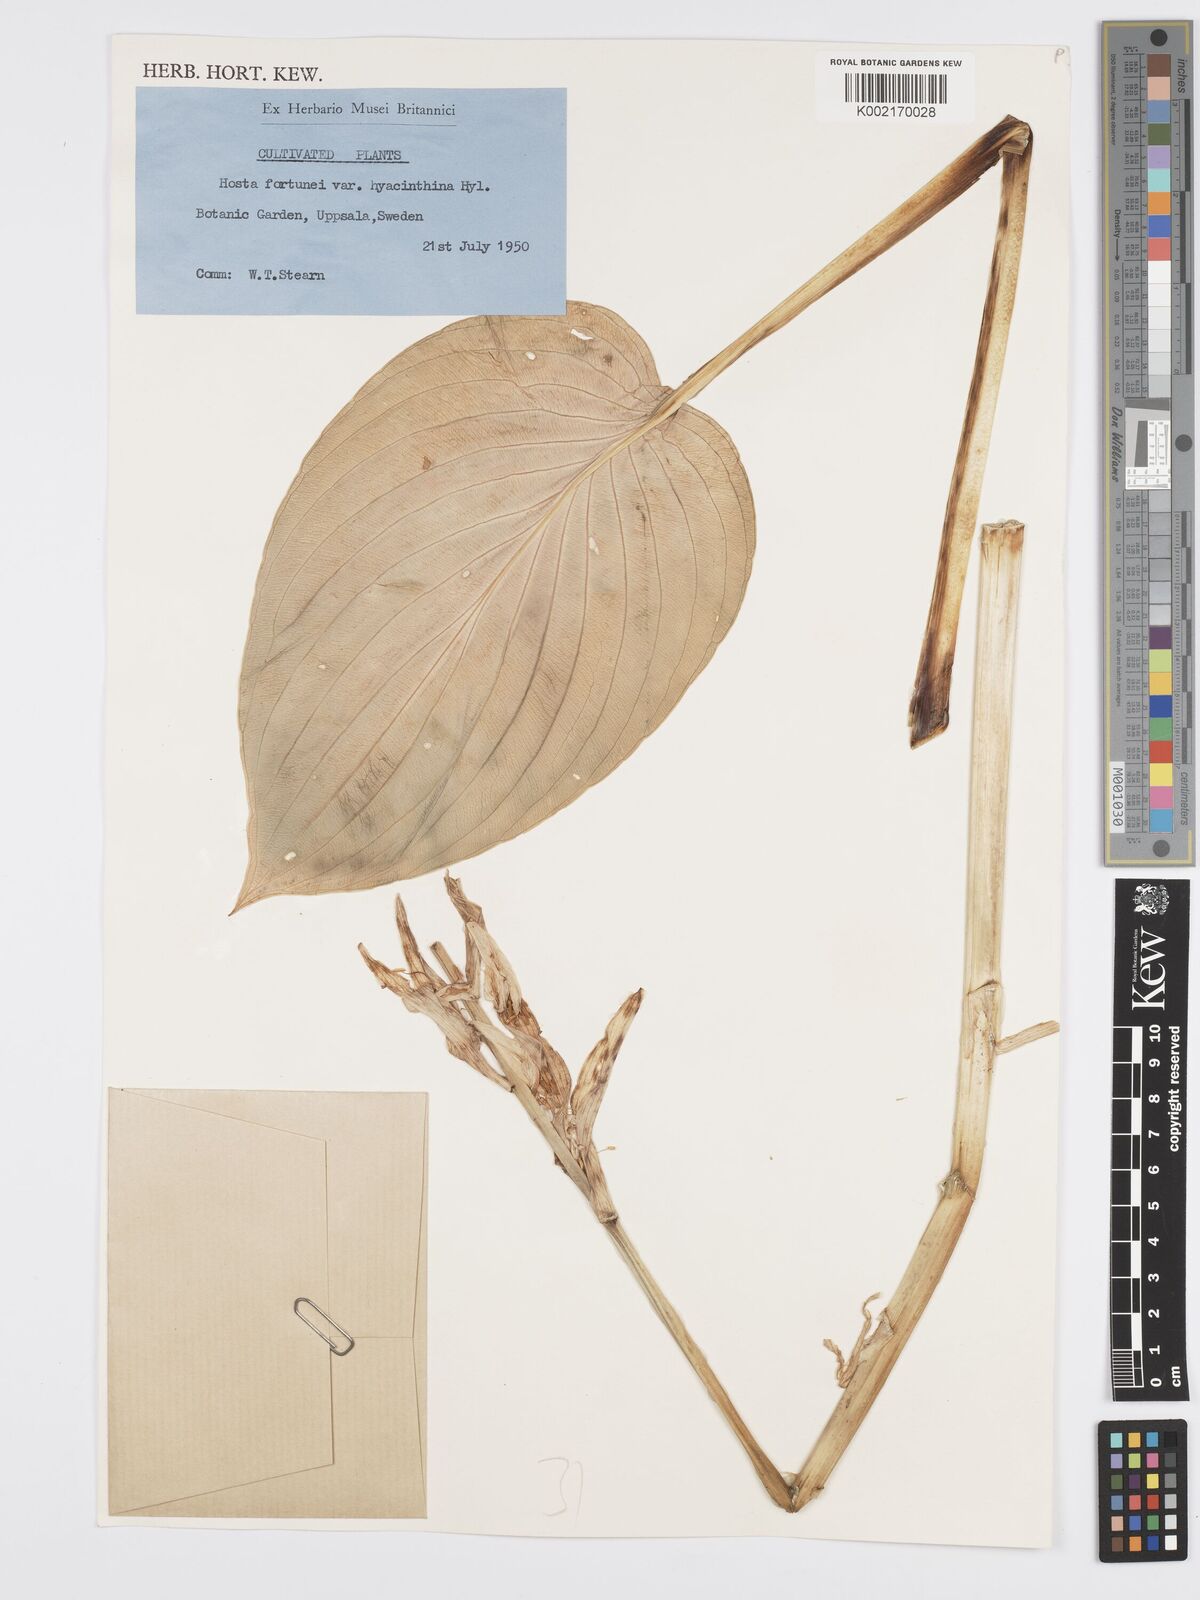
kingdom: Plantae
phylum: Tracheophyta
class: Liliopsida
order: Asparagales
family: Asparagaceae
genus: Hosta
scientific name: Hosta sieboldiana
